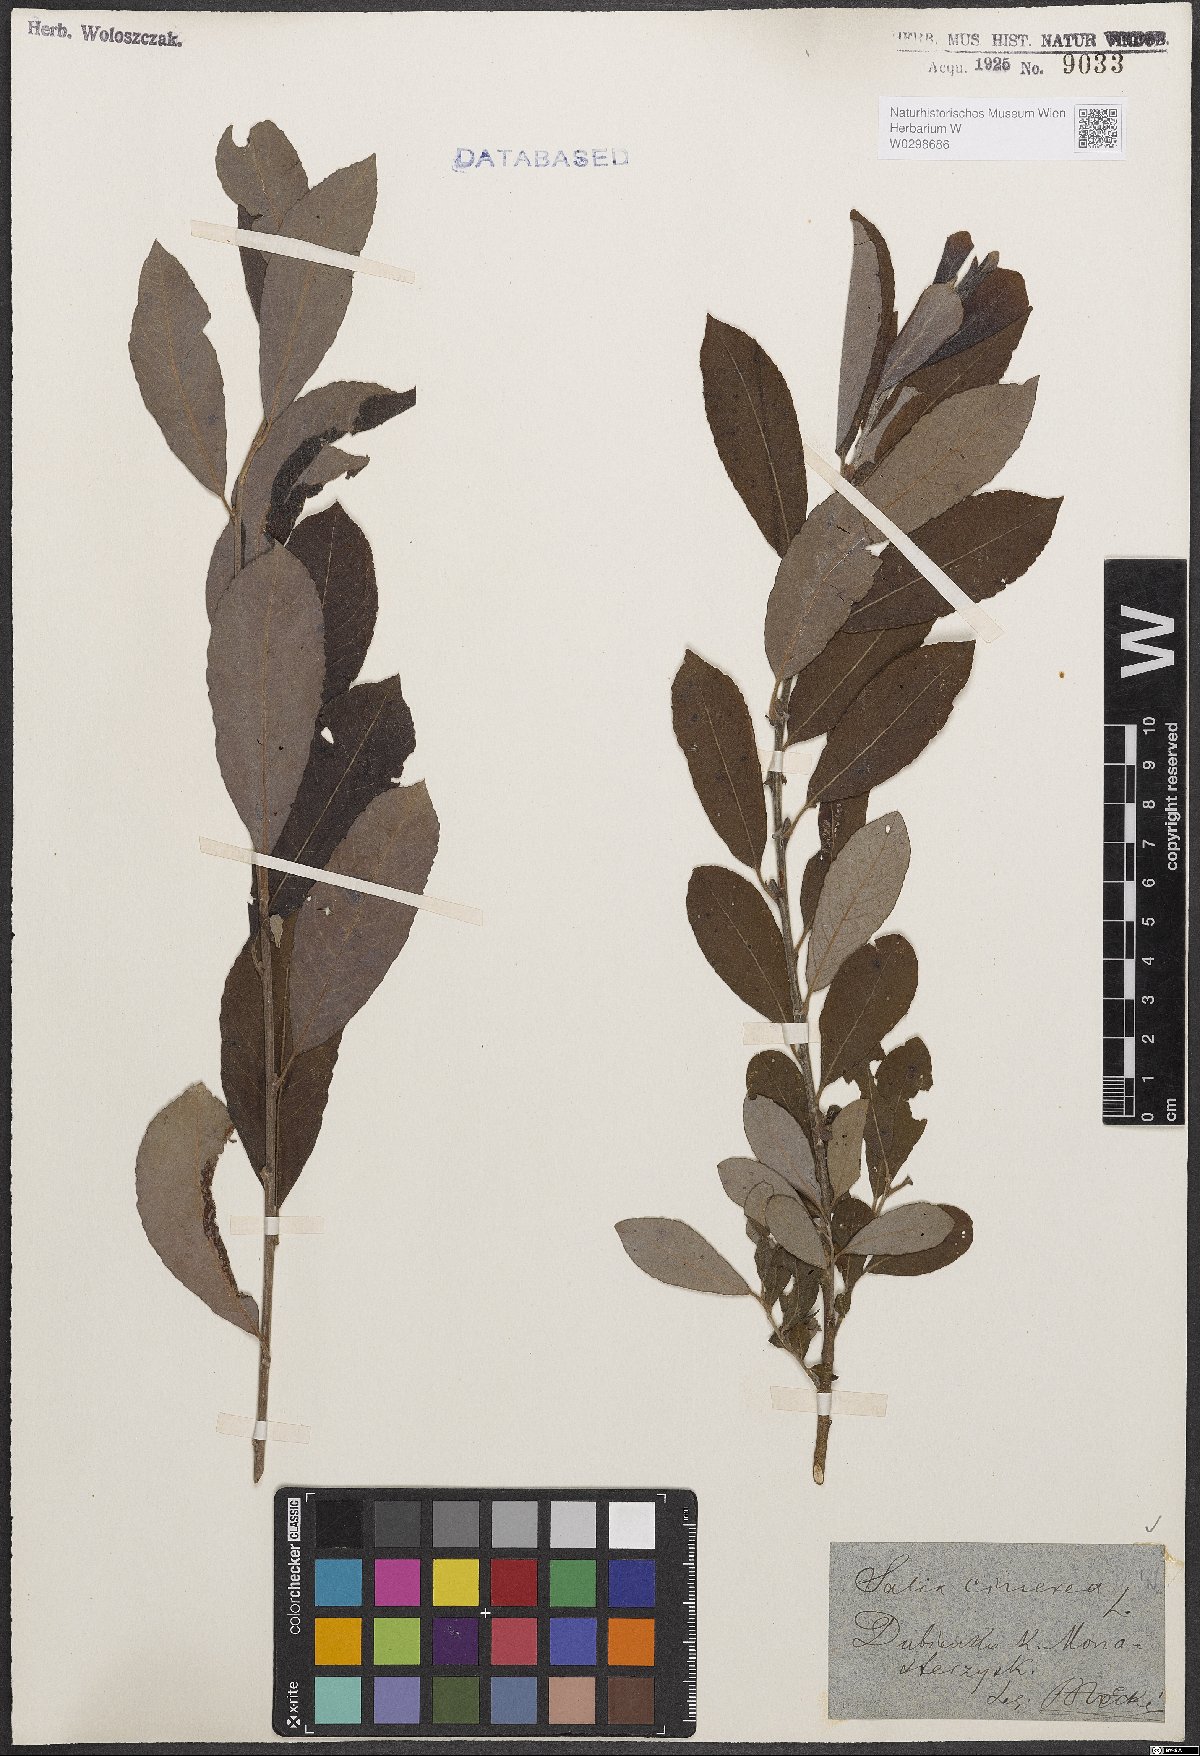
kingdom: Plantae
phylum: Tracheophyta
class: Magnoliopsida
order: Malpighiales
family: Salicaceae
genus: Salix
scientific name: Salix cinerea
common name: Common sallow
